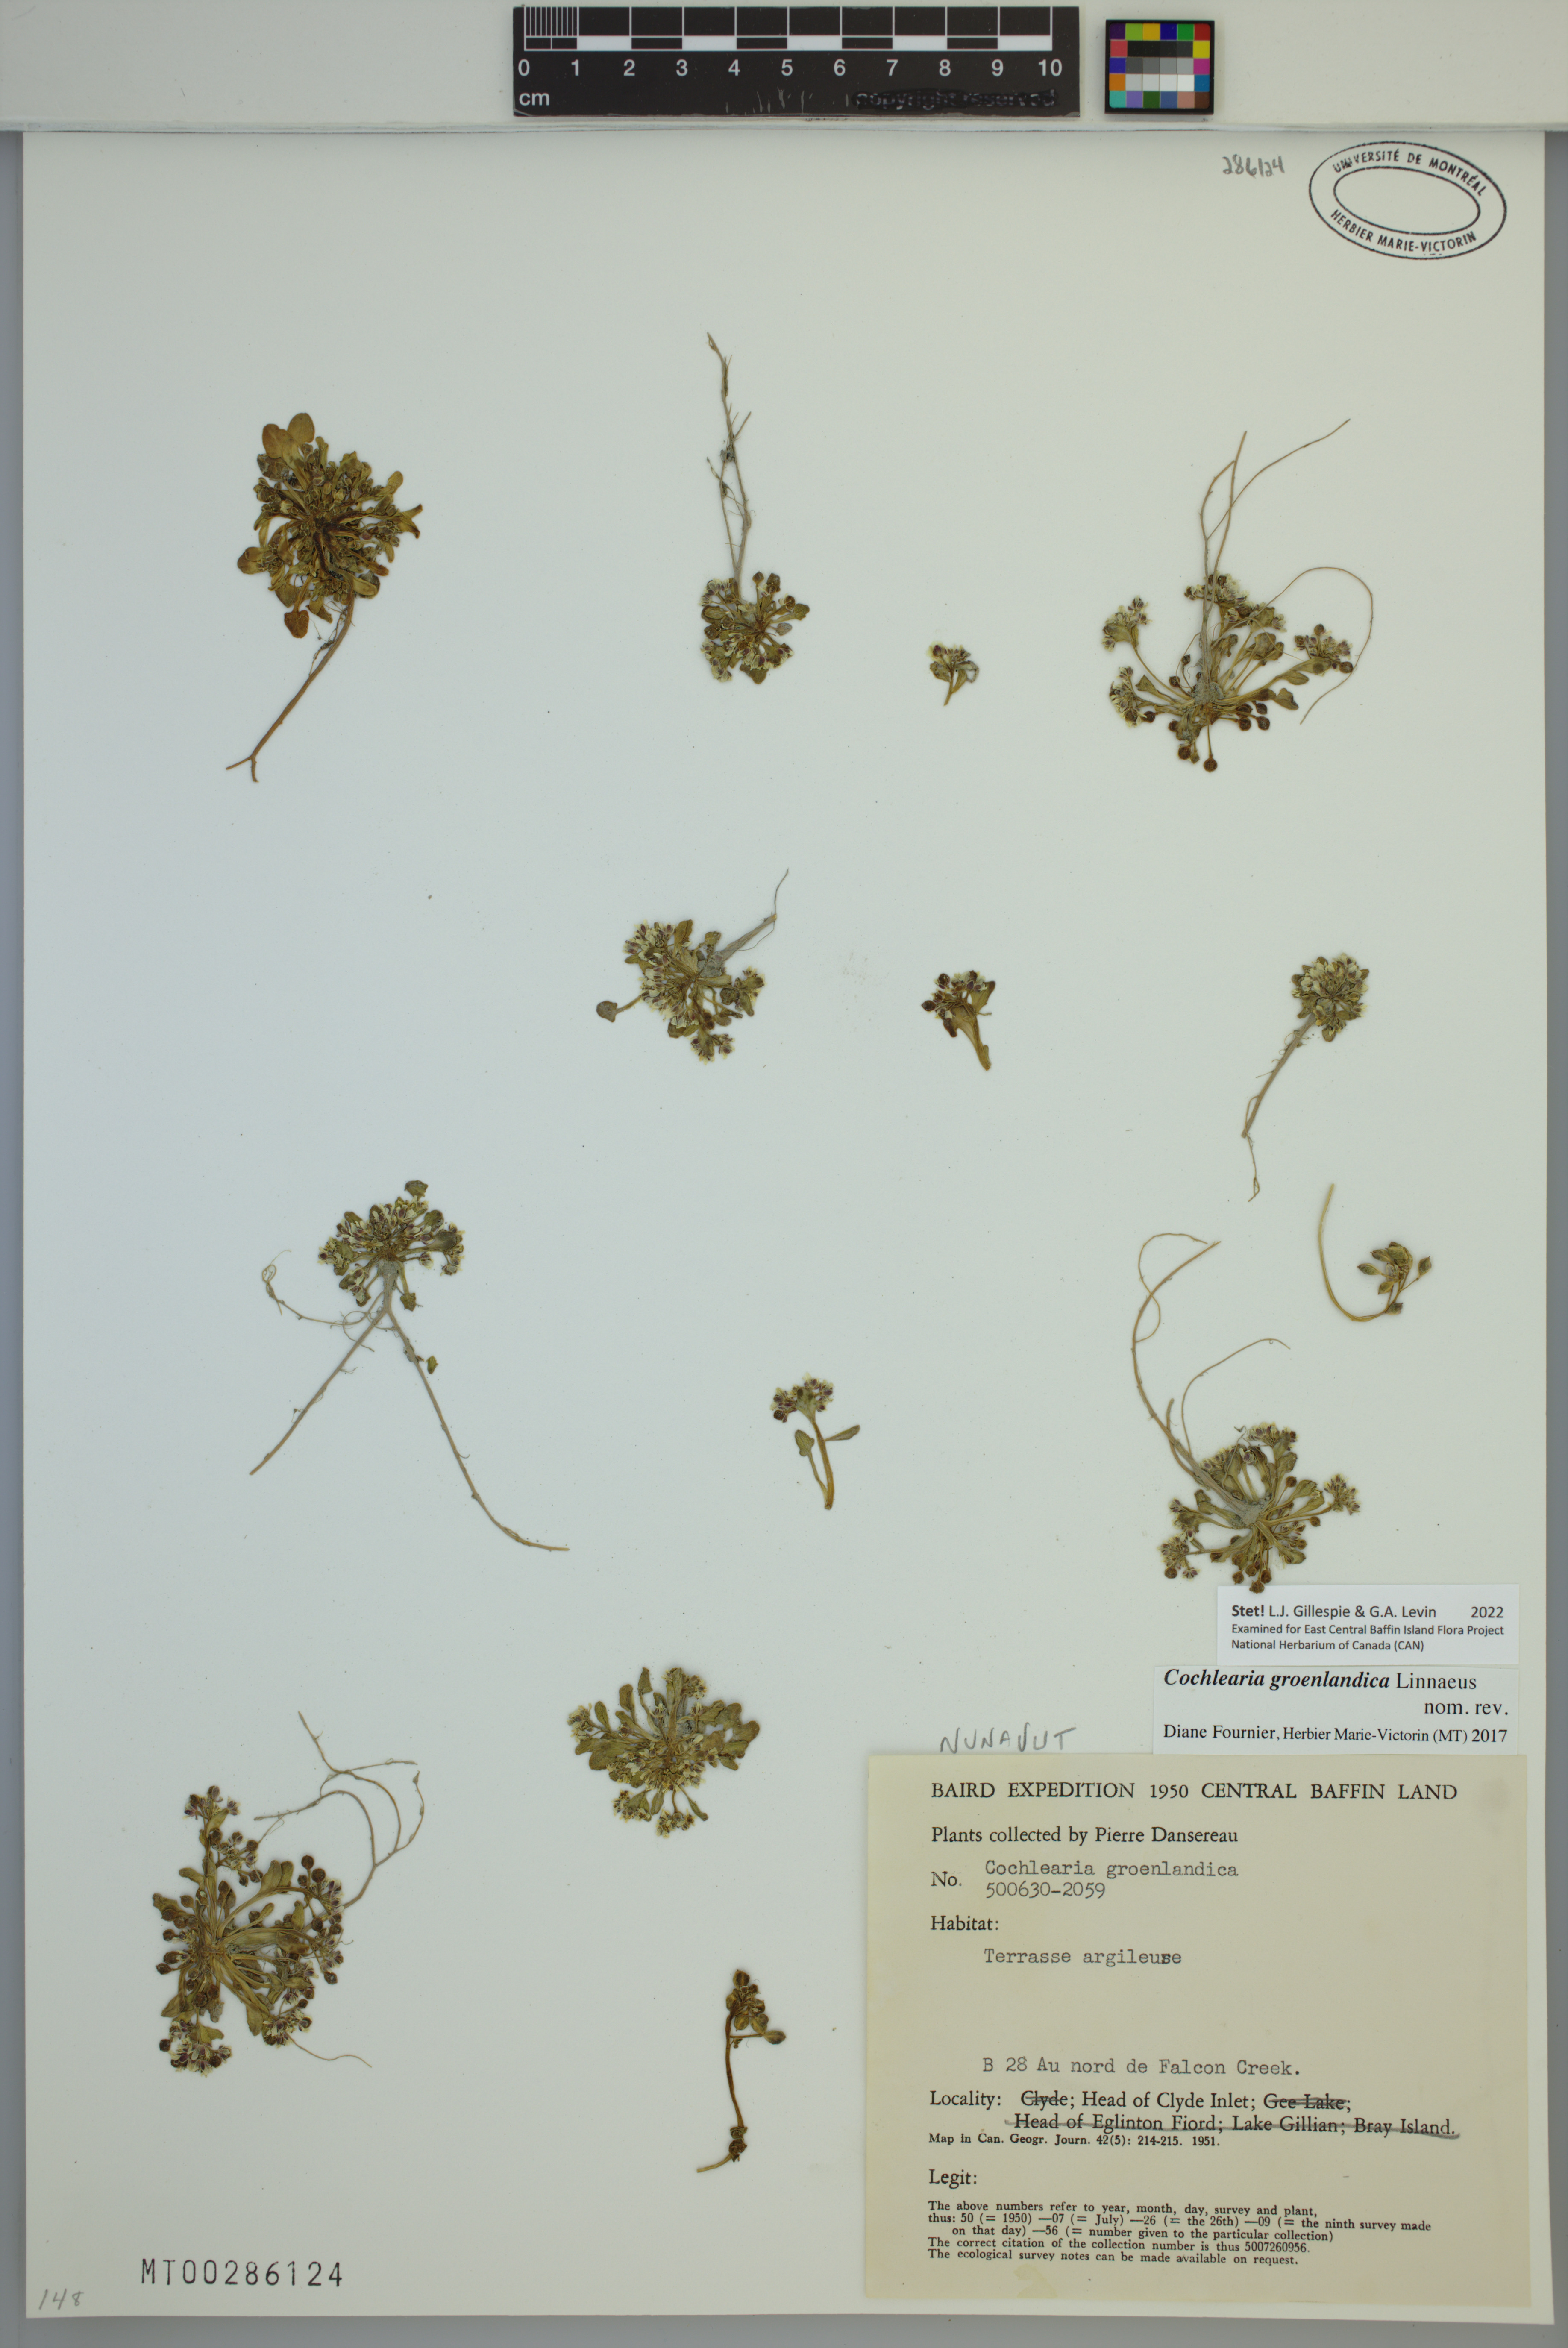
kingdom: Plantae
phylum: Tracheophyta
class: Magnoliopsida
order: Brassicales
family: Brassicaceae
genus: Cochlearia
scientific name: Cochlearia groenlandica
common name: Danish scurvygrass
